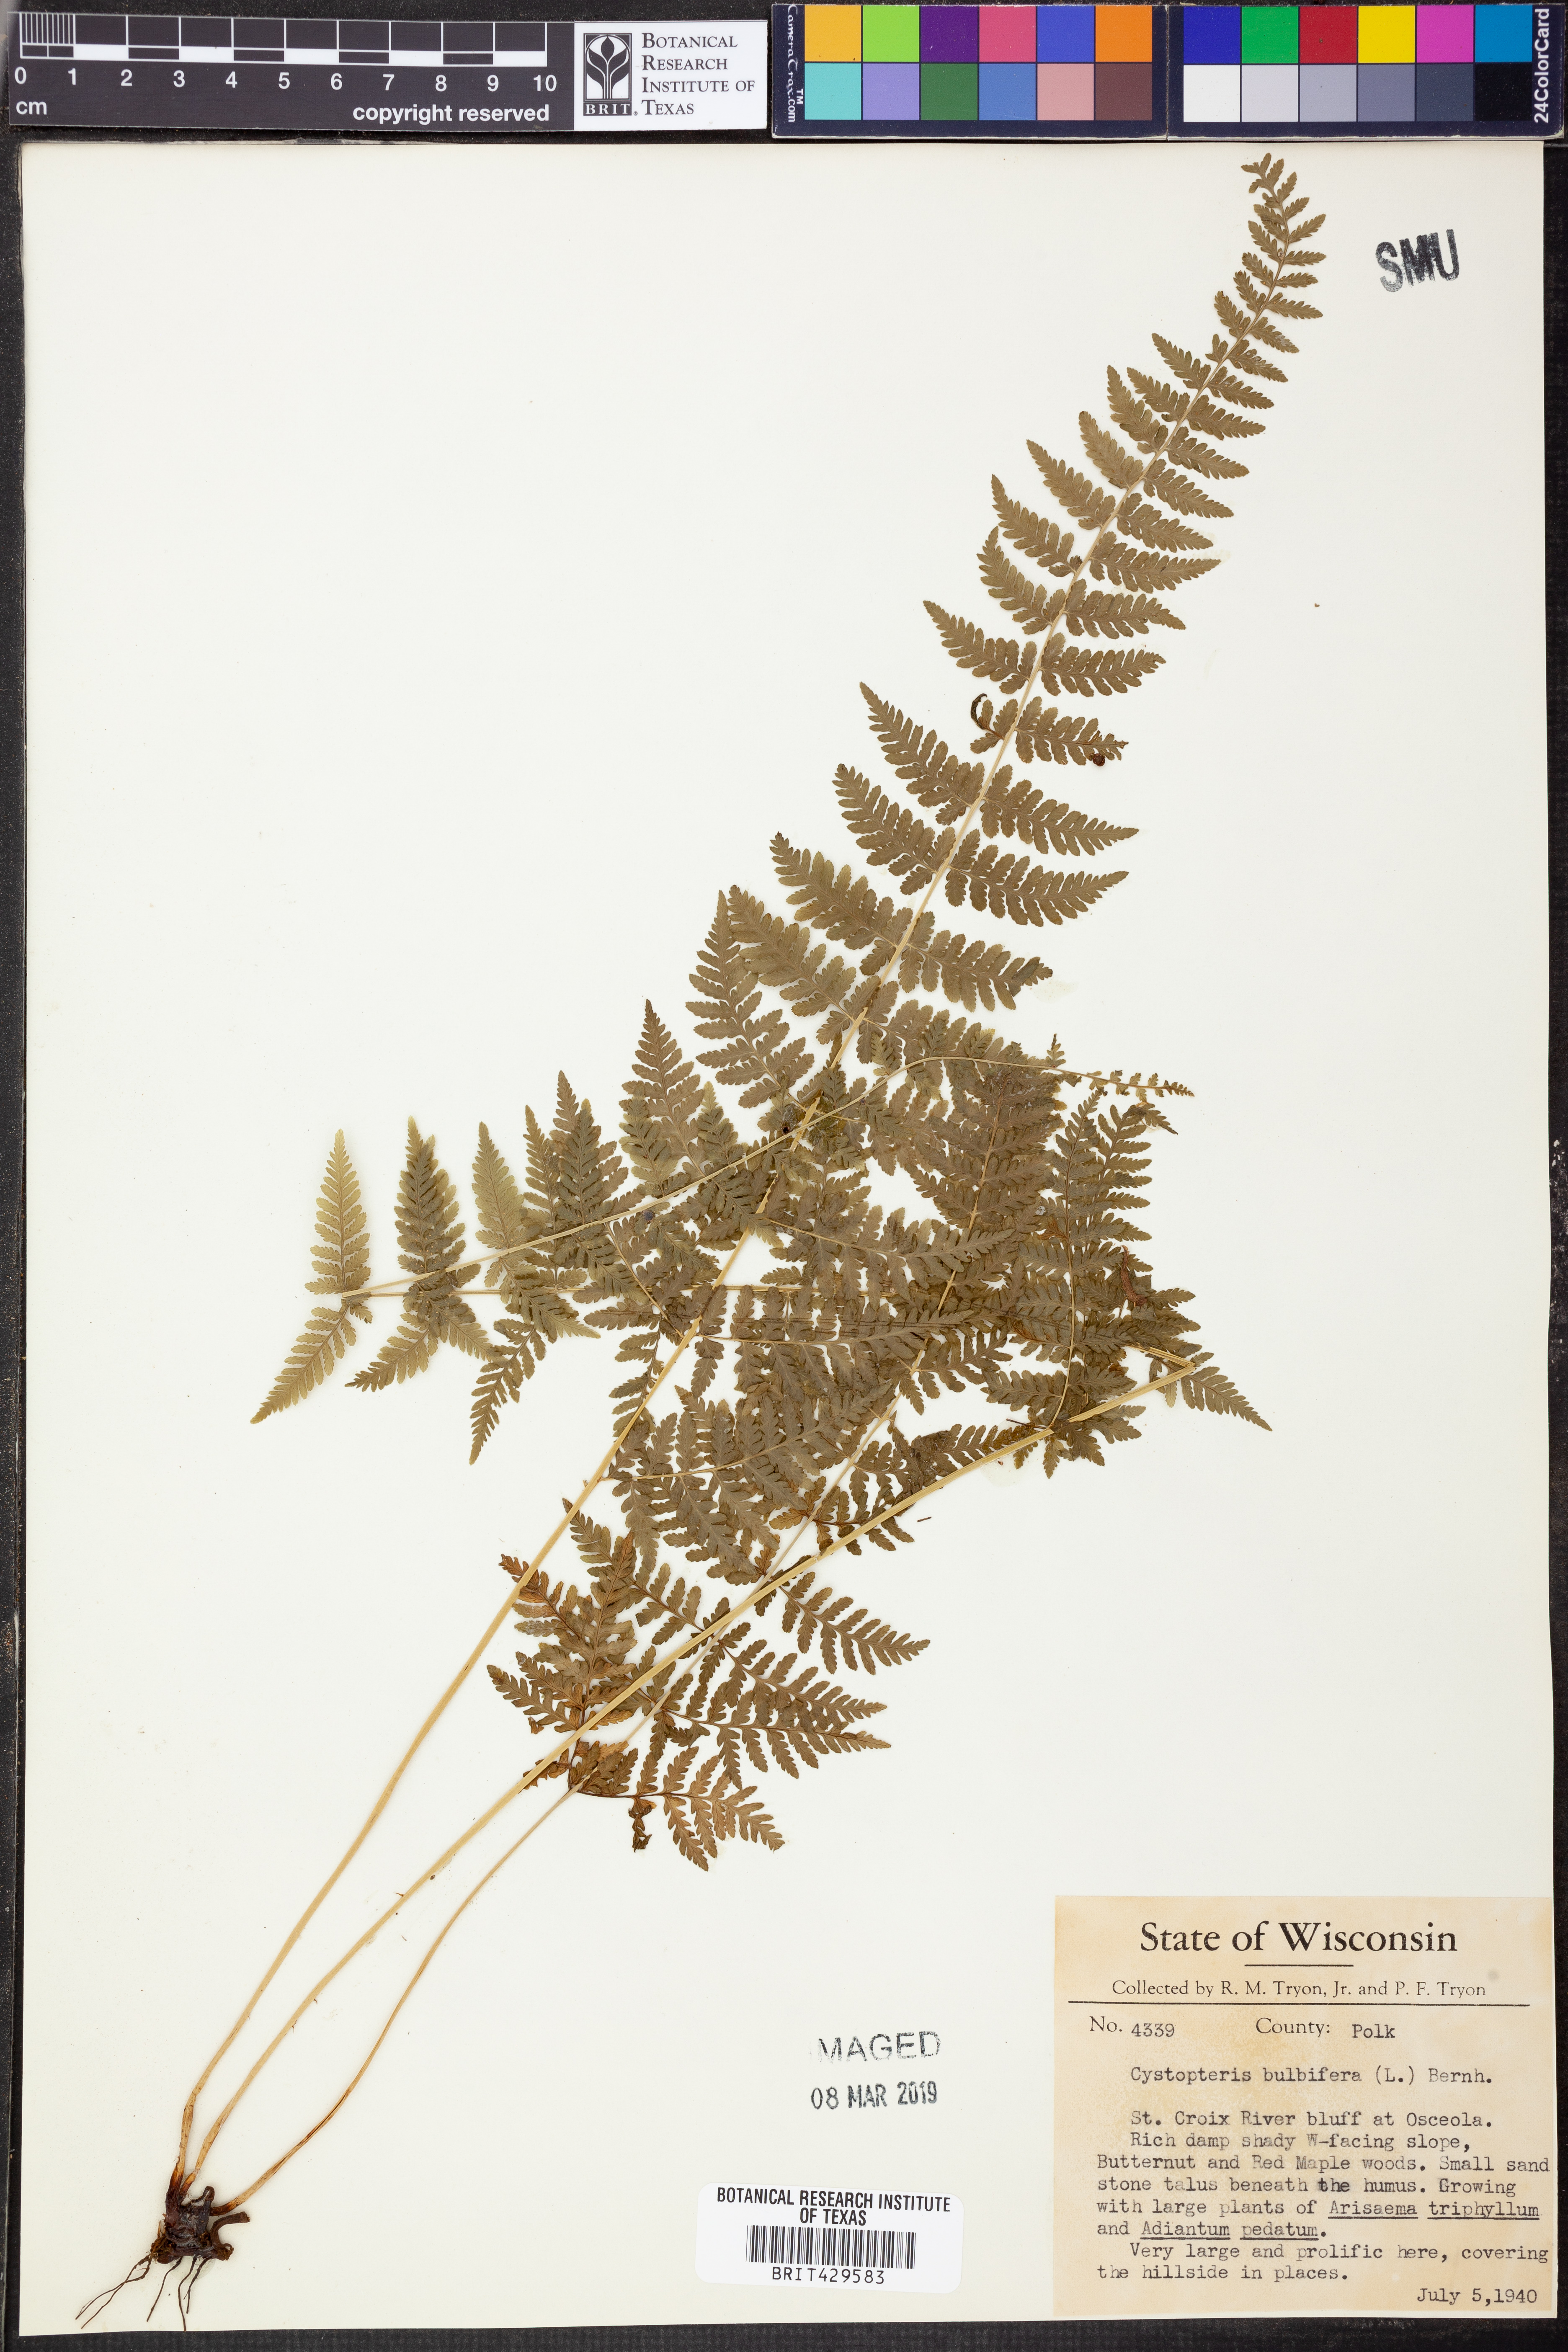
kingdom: Plantae
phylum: Tracheophyta
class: Polypodiopsida
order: Polypodiales
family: Cystopteridaceae
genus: Cystopteris
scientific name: Cystopteris bulbifera
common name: Bulblet bladder fern
